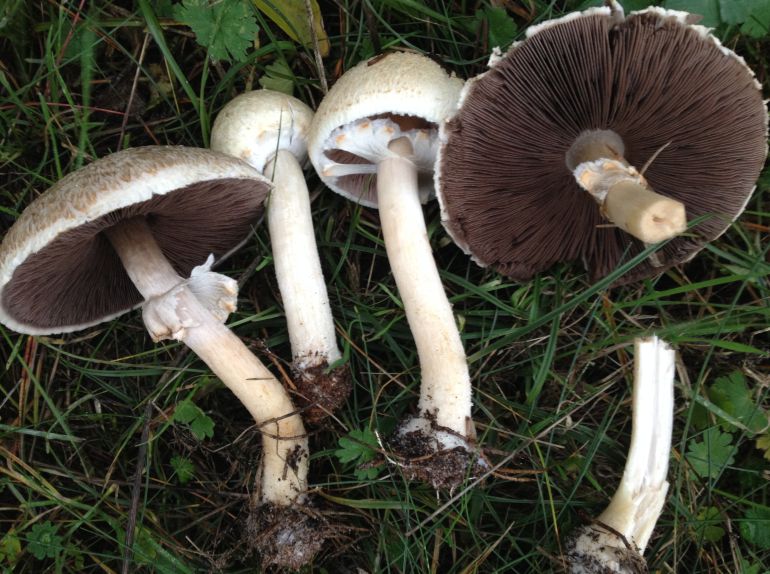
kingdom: Fungi
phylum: Basidiomycota
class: Agaricomycetes
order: Agaricales
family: Agaricaceae
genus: Agaricus
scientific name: Agaricus sylvicola
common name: gulhvid champignon
